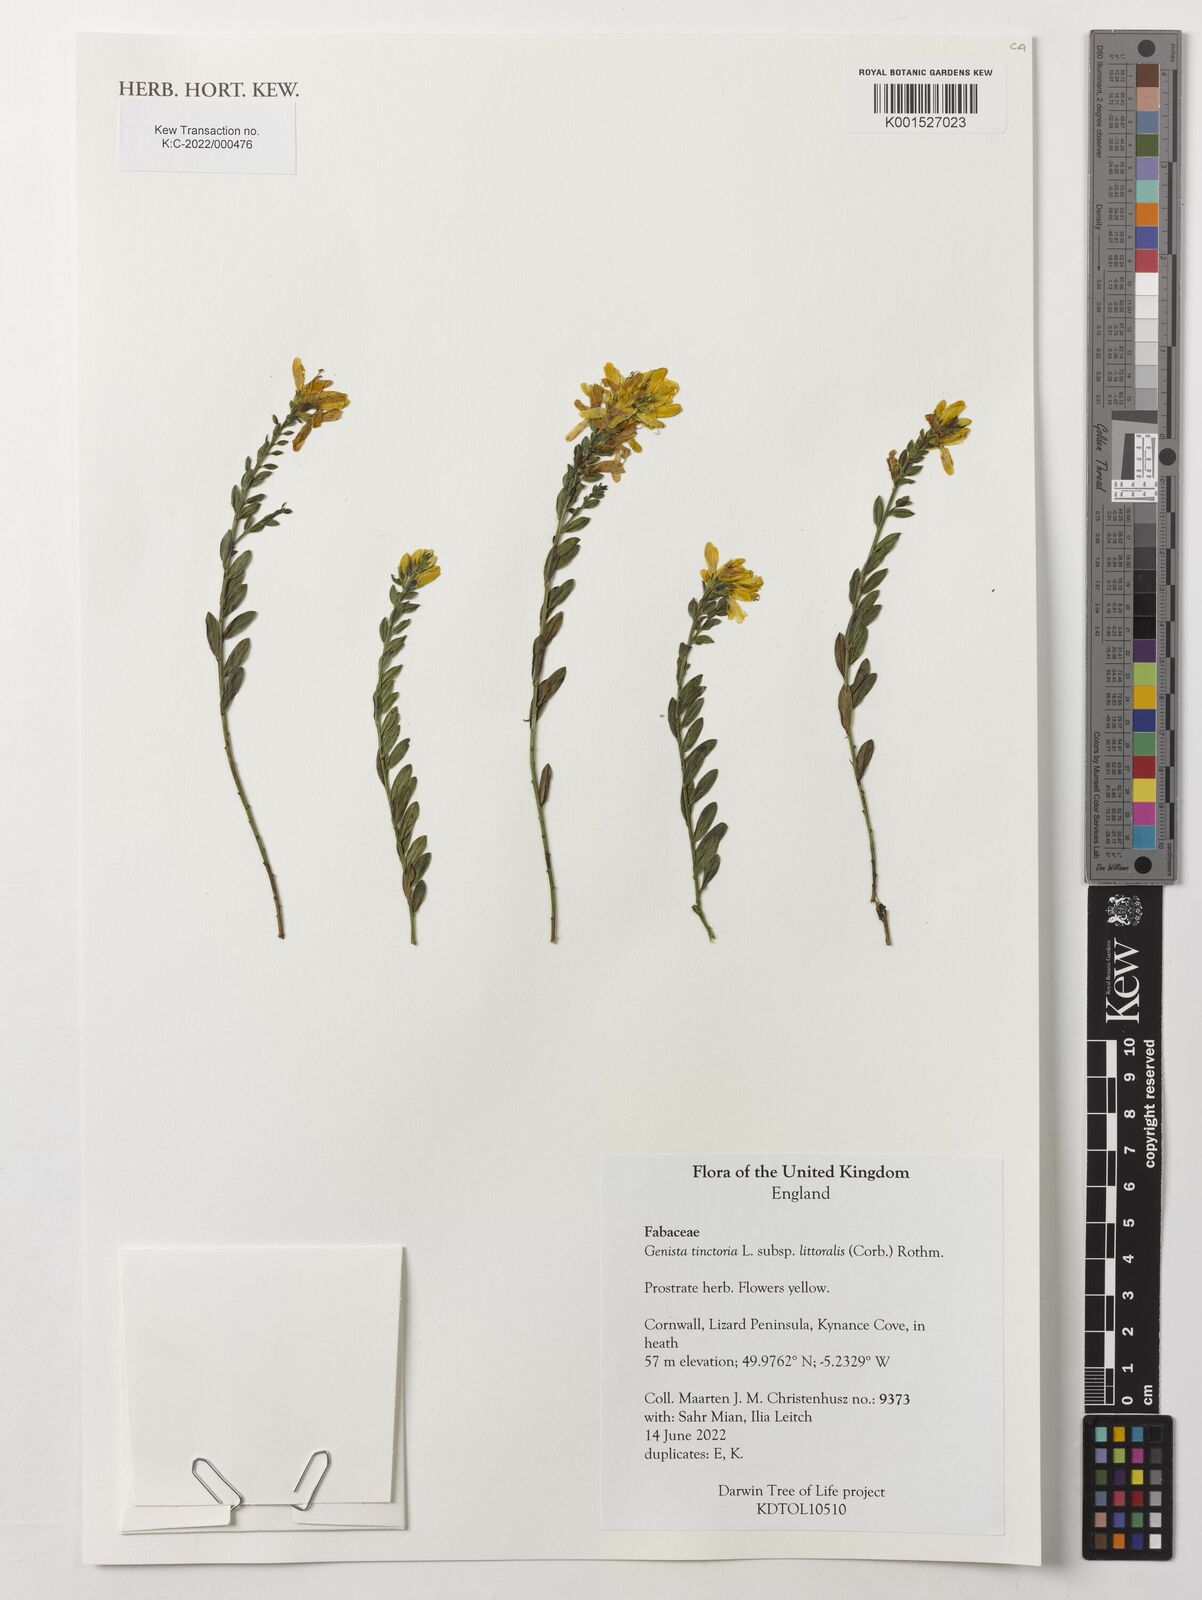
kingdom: Plantae
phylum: Tracheophyta
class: Magnoliopsida
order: Fabales
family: Fabaceae
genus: Genista
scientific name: Genista tinctoria
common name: Dyer's greenweed
